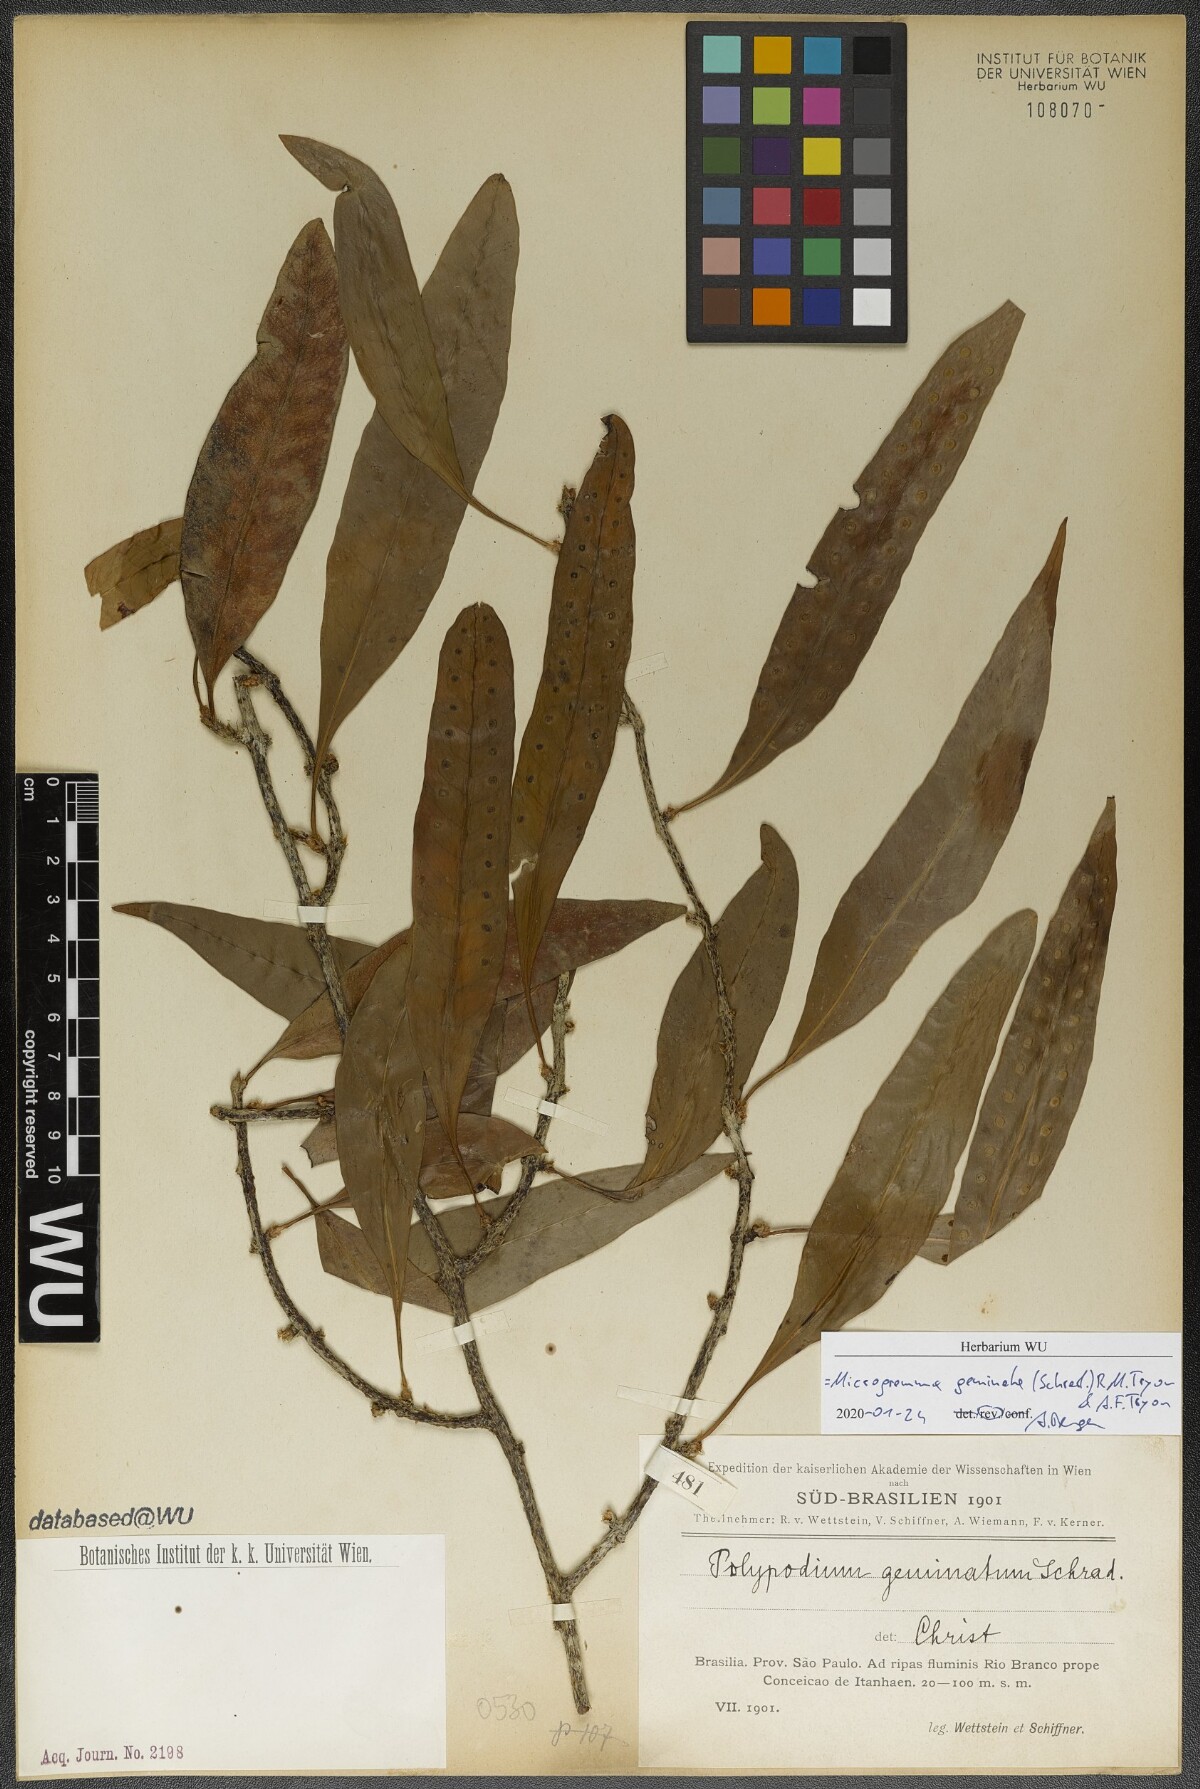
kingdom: Plantae
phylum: Tracheophyta
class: Polypodiopsida
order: Polypodiales
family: Polypodiaceae
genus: Microgramma
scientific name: Microgramma geminata
